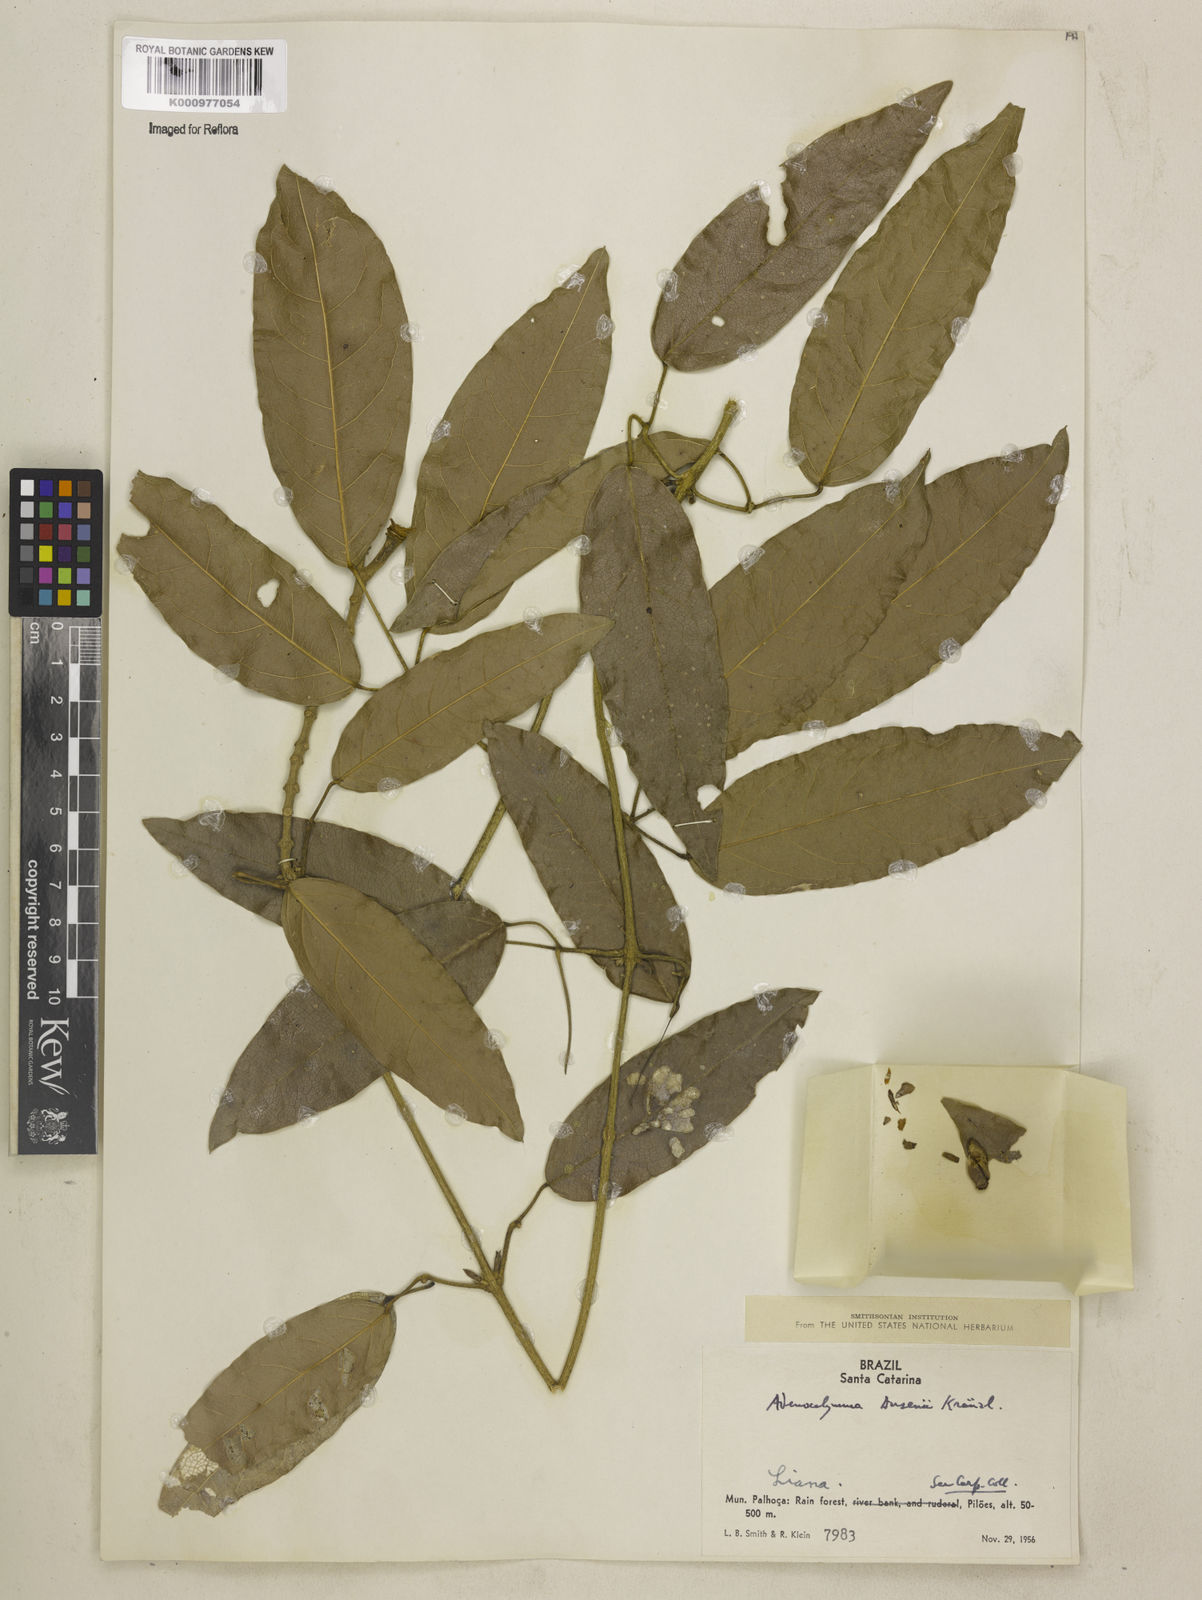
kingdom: Plantae
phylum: Tracheophyta
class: Magnoliopsida
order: Lamiales
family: Bignoniaceae
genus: Adenocalymma
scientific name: Adenocalymma dusenii
